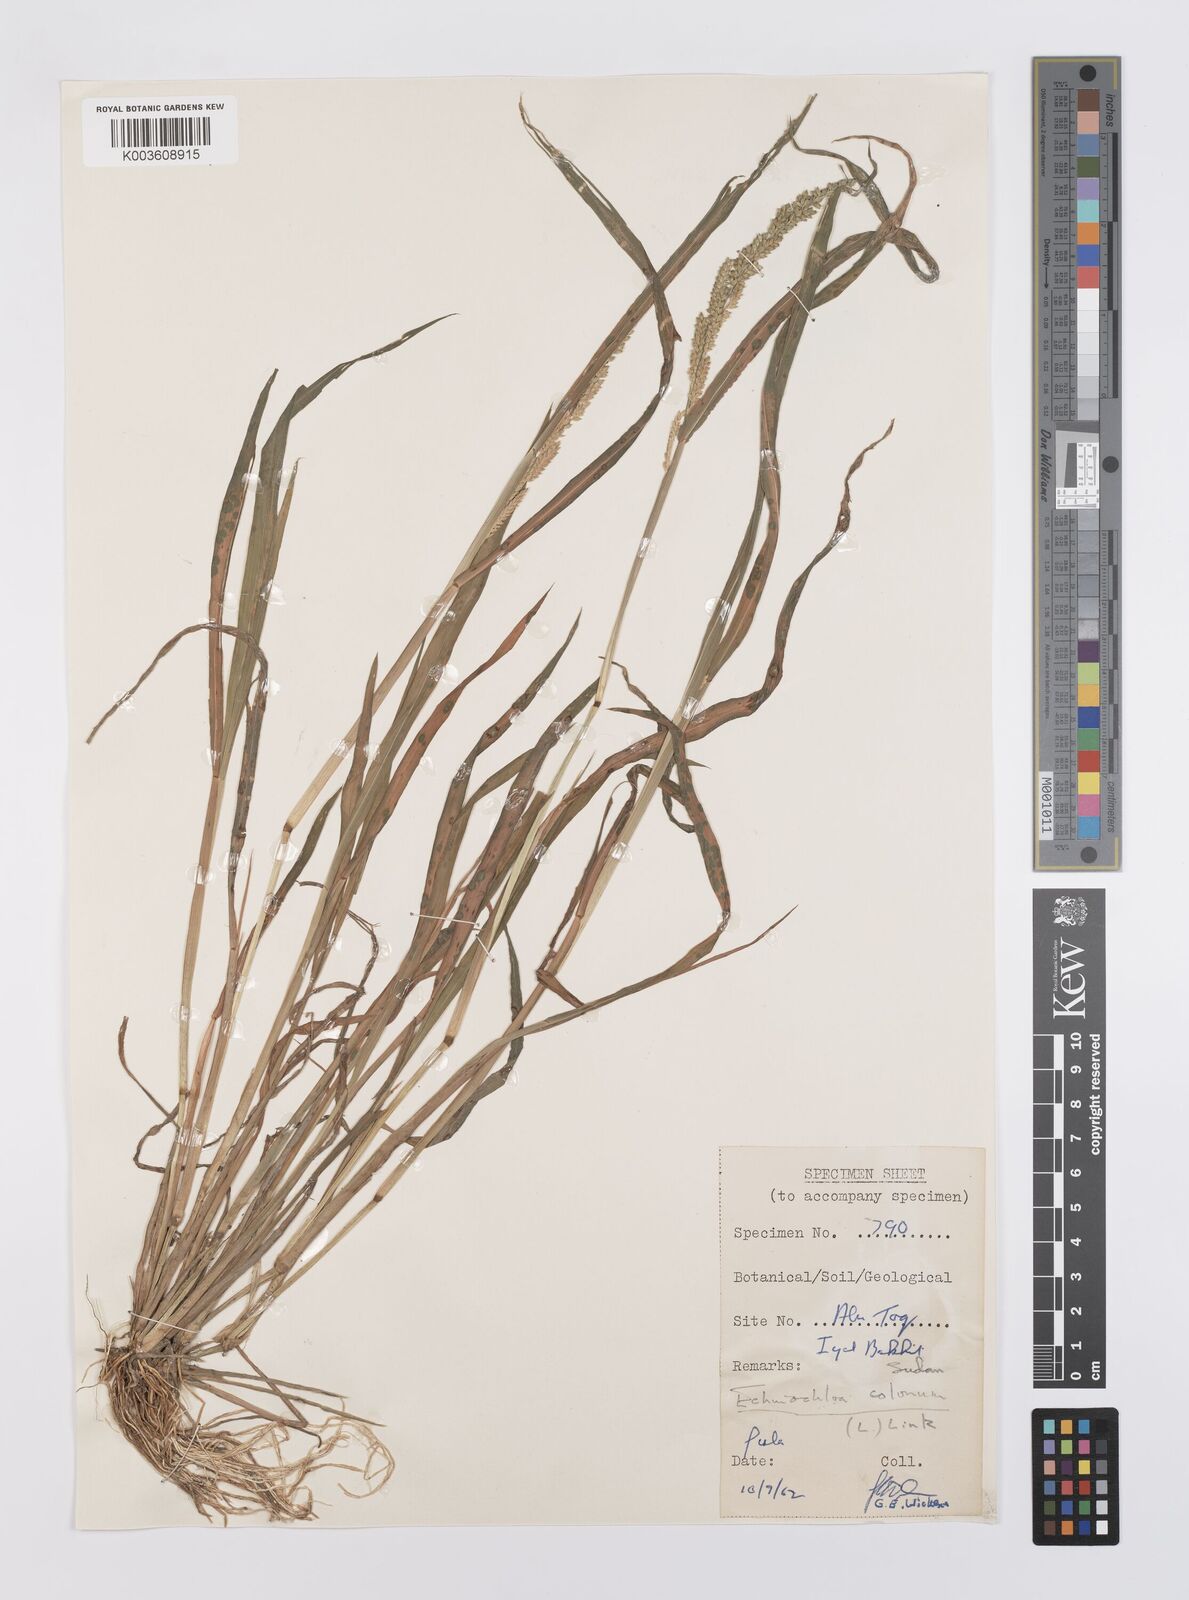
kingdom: Plantae
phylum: Tracheophyta
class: Liliopsida
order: Poales
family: Poaceae
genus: Echinochloa
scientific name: Echinochloa colonum
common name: Jungle rice
